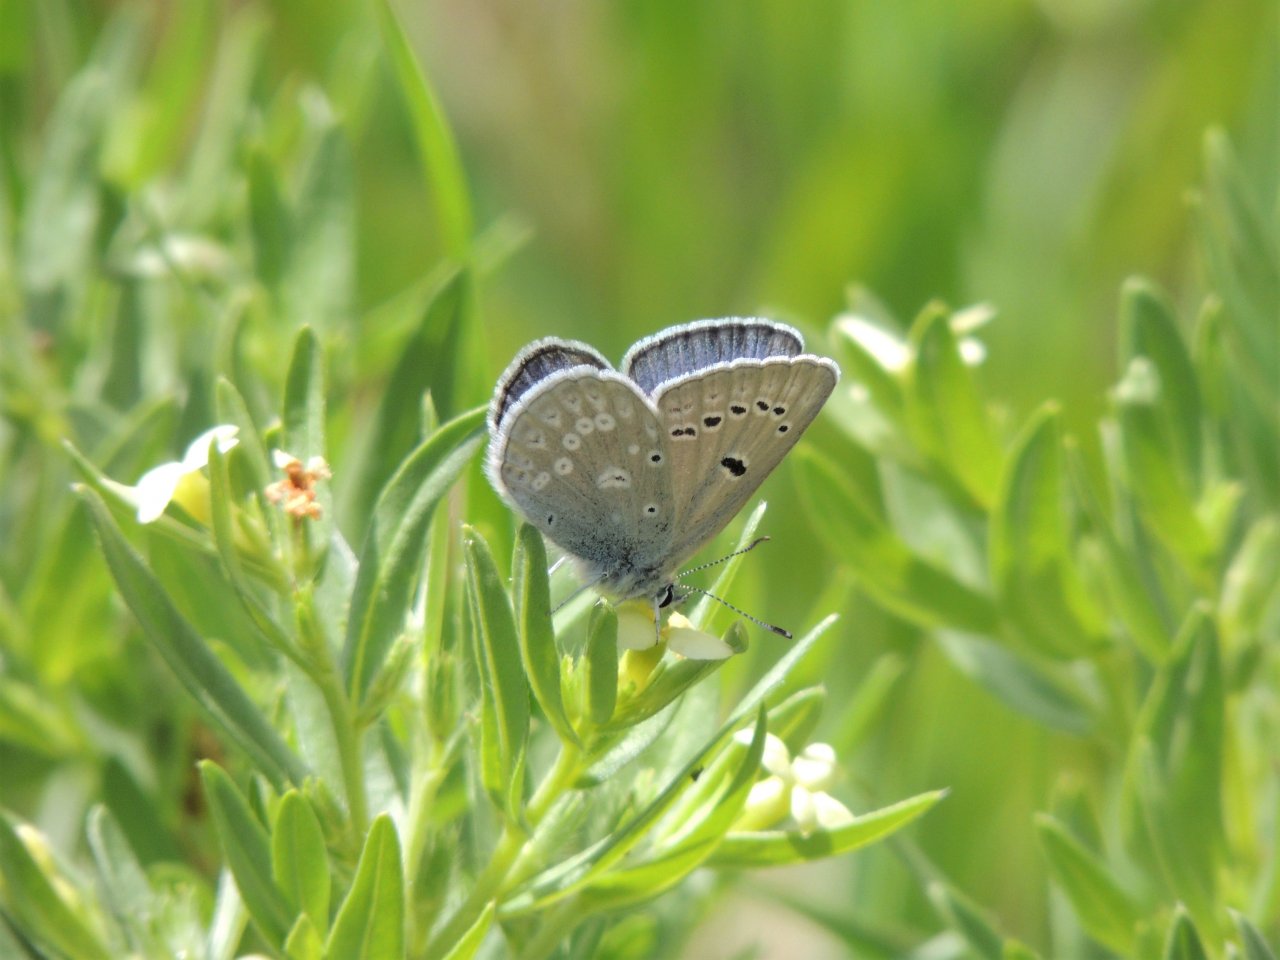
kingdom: Animalia
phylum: Arthropoda
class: Insecta
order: Lepidoptera
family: Lycaenidae
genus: Icaricia
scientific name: Icaricia icarioides
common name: Boisduval's Blue
